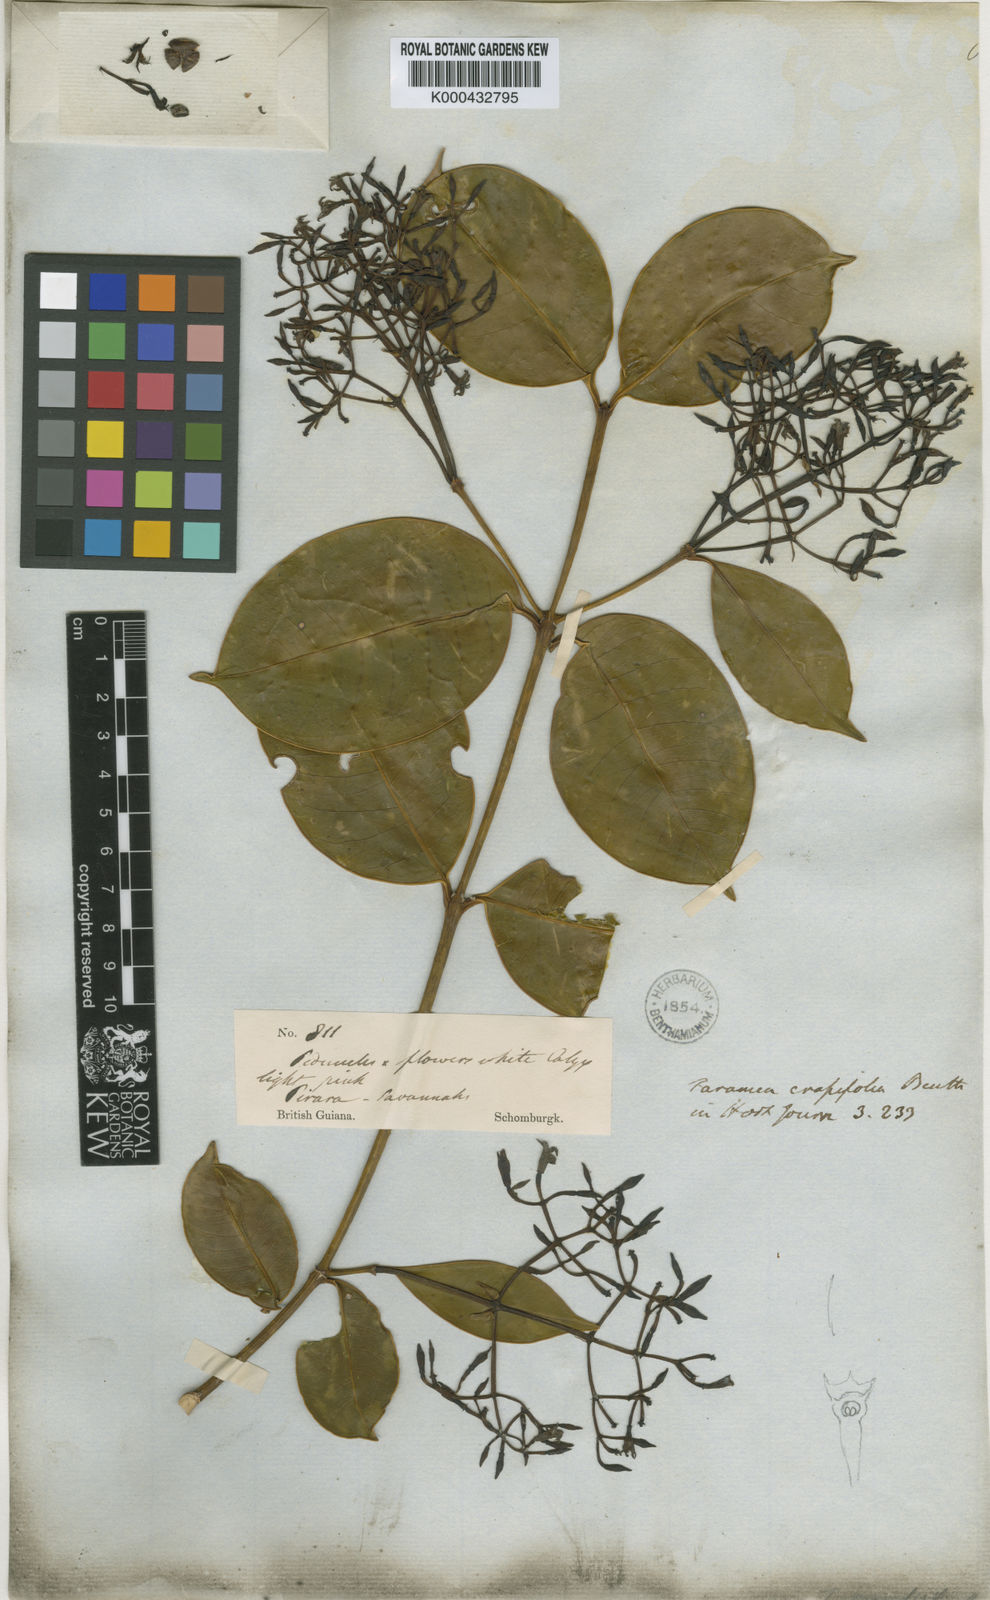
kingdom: Plantae
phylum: Tracheophyta
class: Magnoliopsida
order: Gentianales
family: Rubiaceae
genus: Faramea
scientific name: Faramea crassifolia
